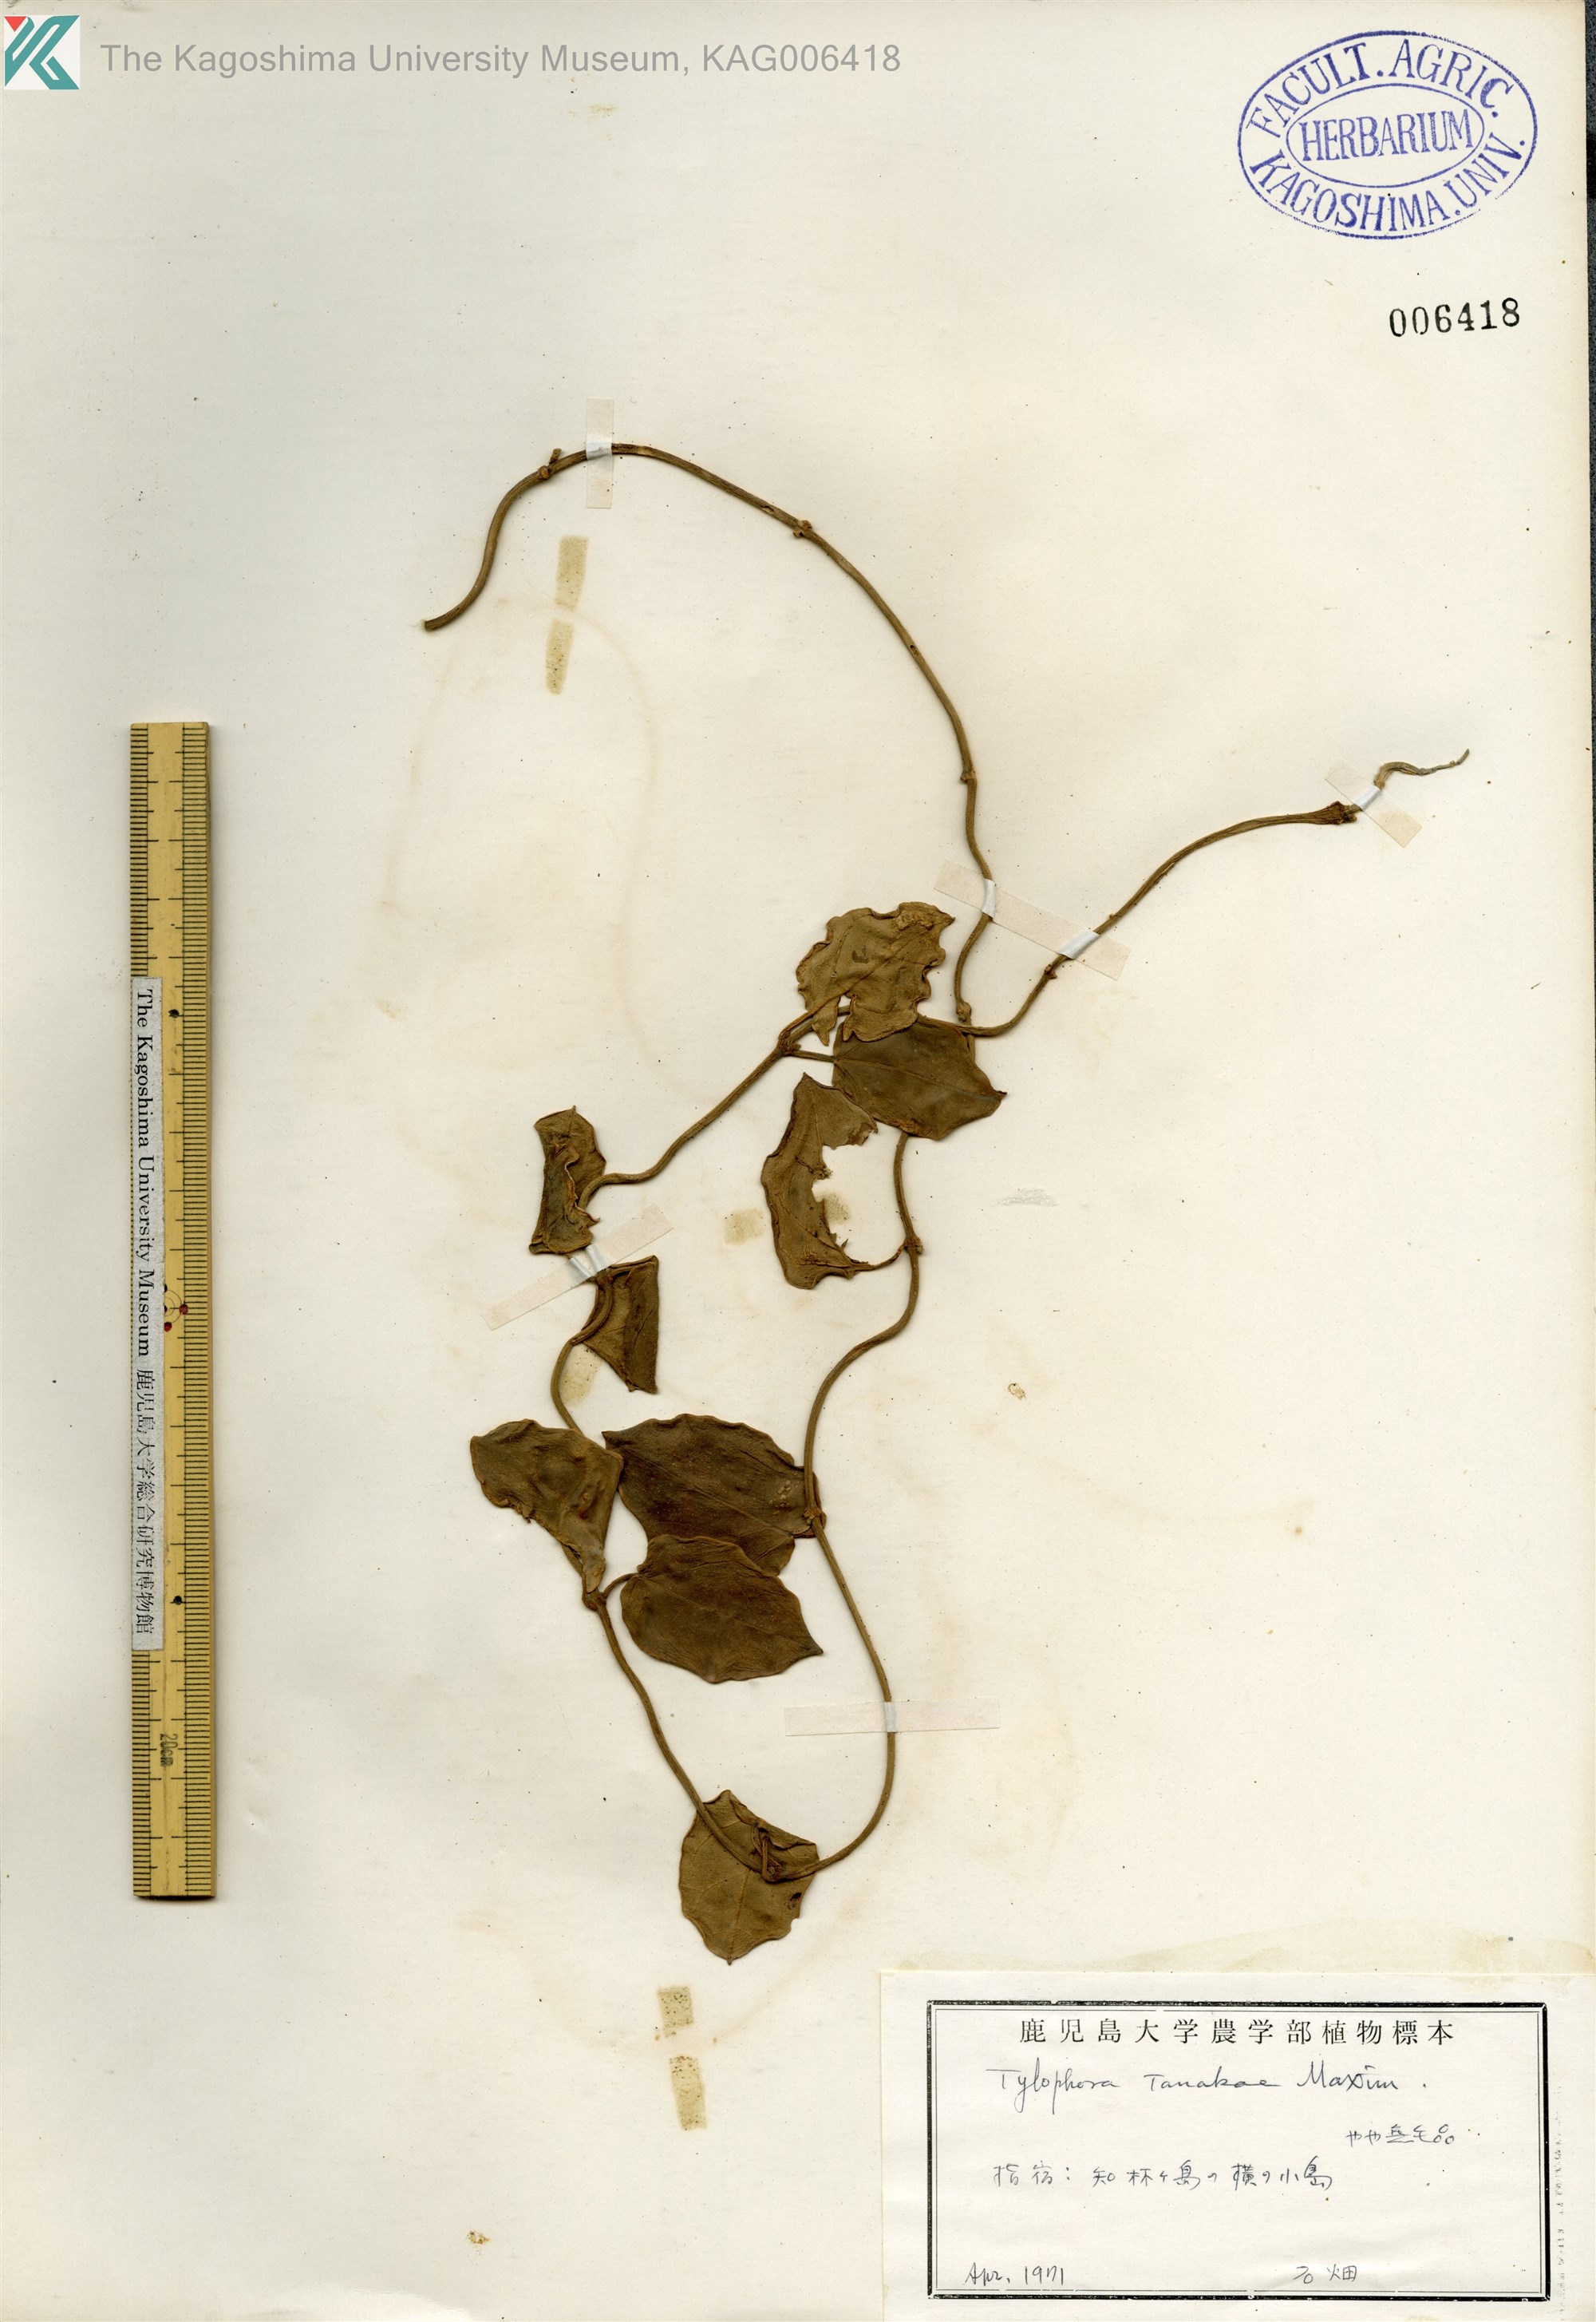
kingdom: Plantae
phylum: Tracheophyta
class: Magnoliopsida
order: Gentianales
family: Apocynaceae
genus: Vincetoxicum
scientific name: Vincetoxicum Tylophora tanakae
